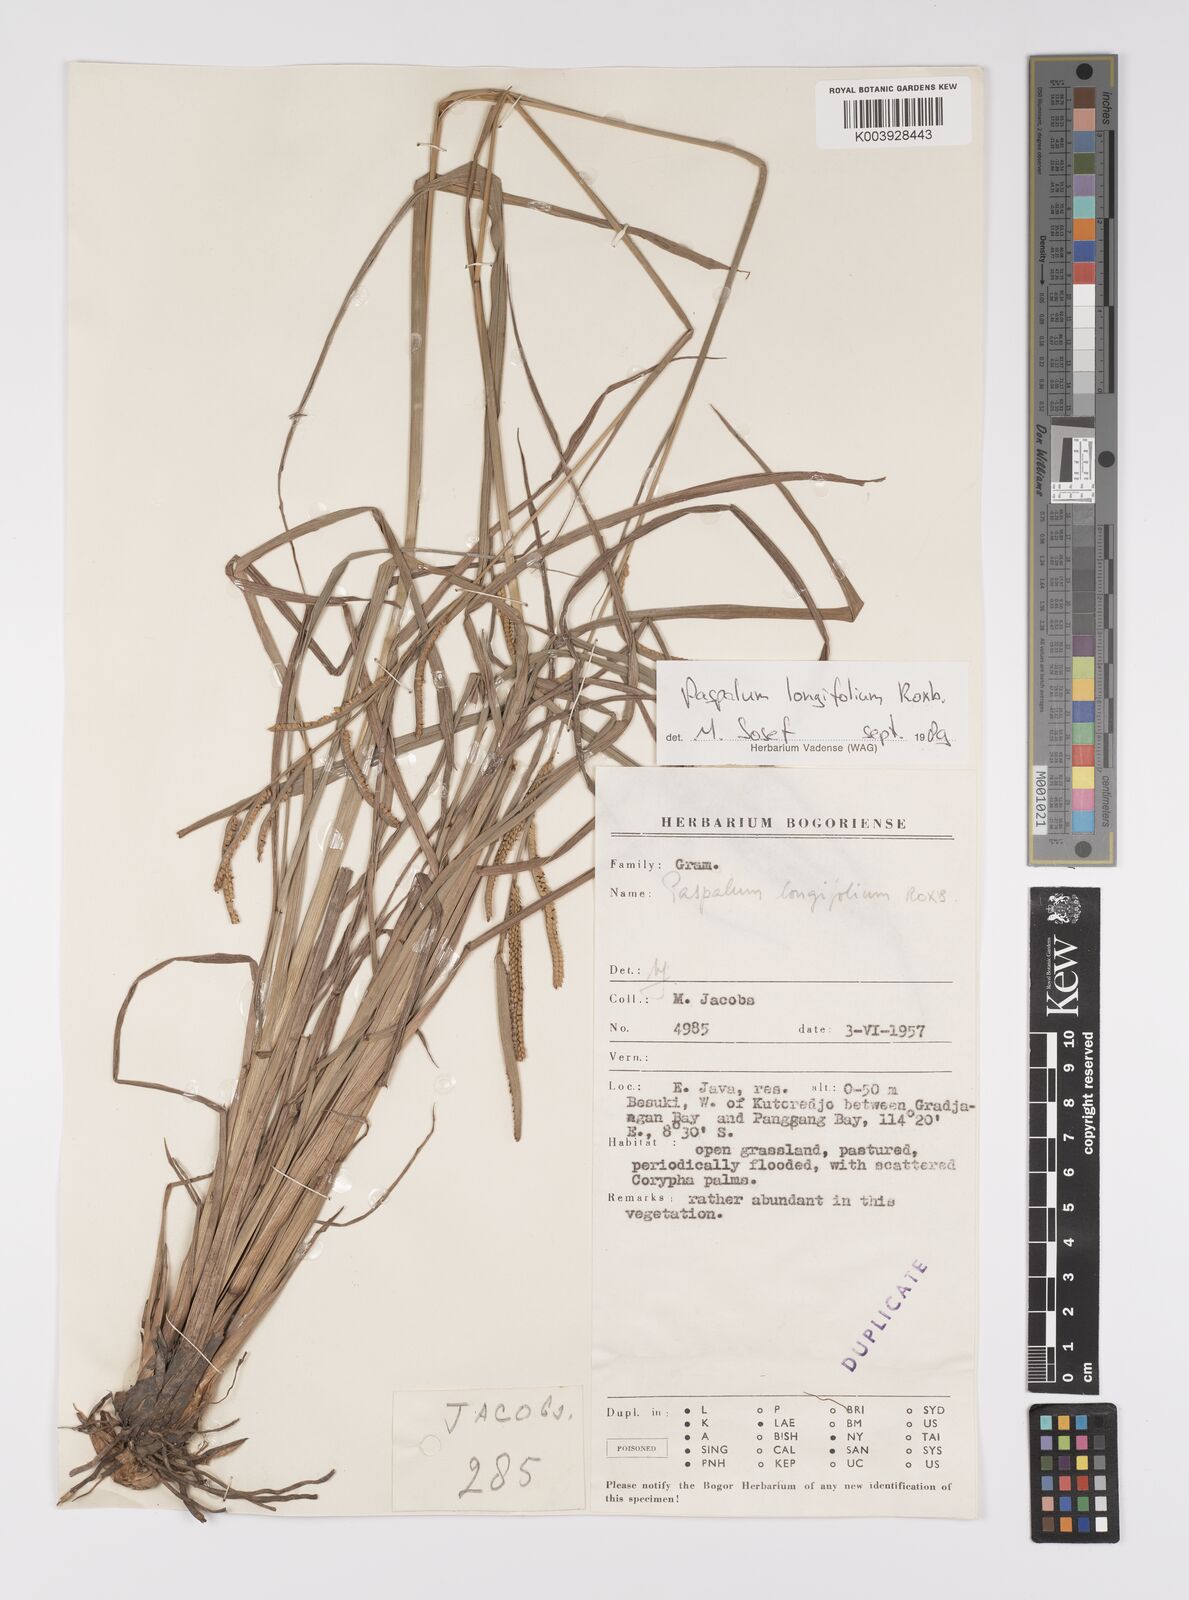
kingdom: Plantae
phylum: Tracheophyta
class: Liliopsida
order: Poales
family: Poaceae
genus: Paspalum
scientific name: Paspalum sumatrense
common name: Long-leaved paspalum
